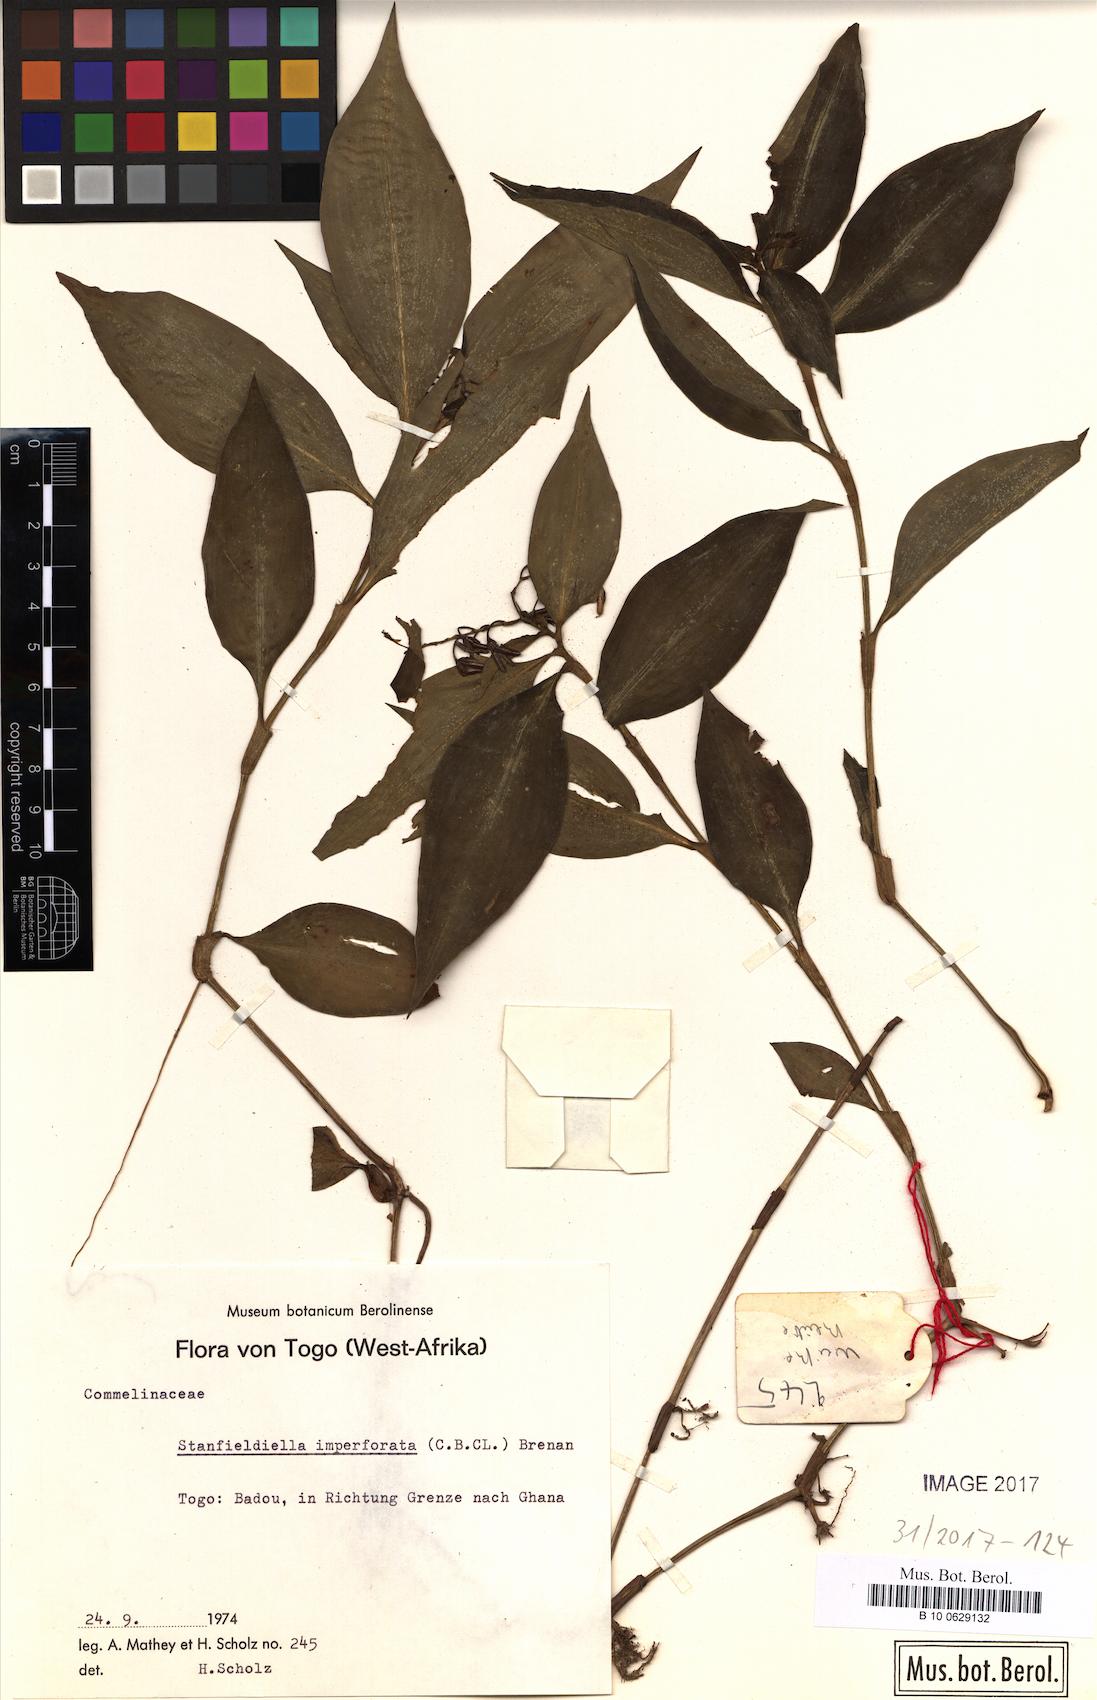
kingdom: Plantae
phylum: Tracheophyta
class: Liliopsida
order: Commelinales
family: Commelinaceae
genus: Stanfieldiella
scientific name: Stanfieldiella imperforata
